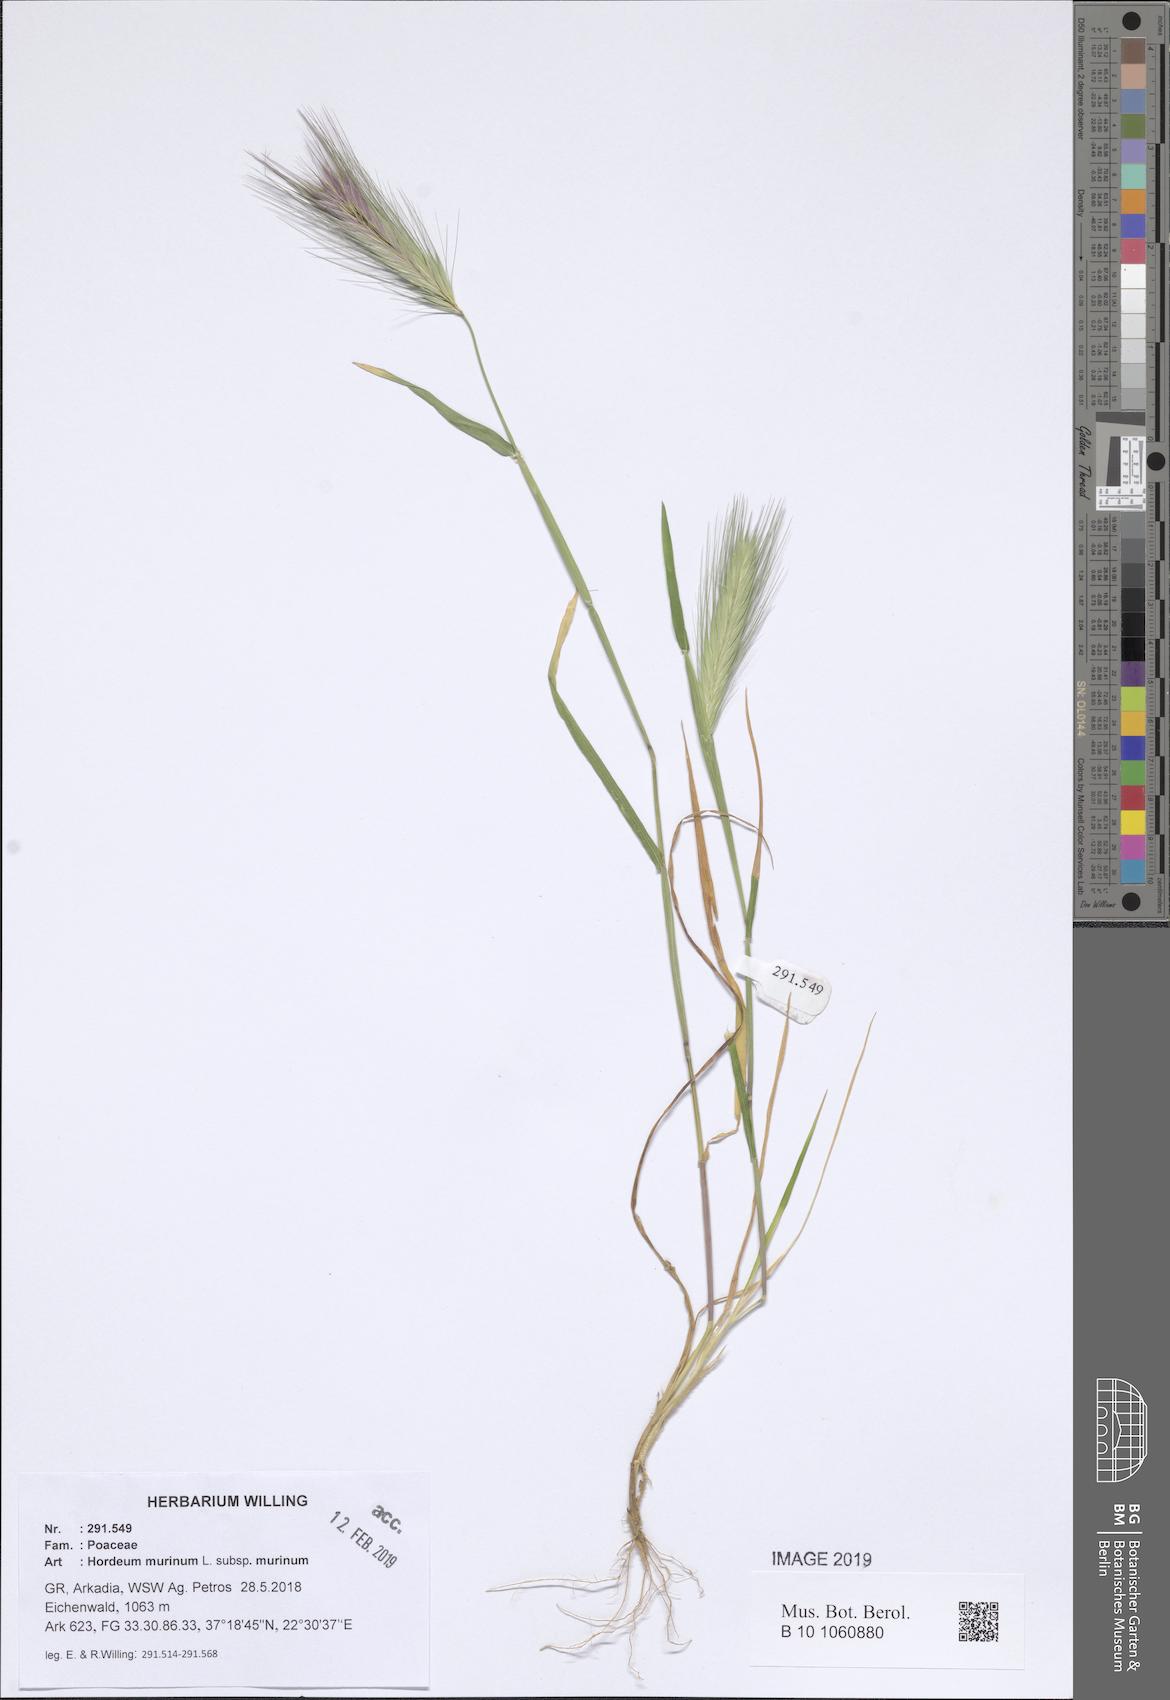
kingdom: Plantae
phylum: Tracheophyta
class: Liliopsida
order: Poales
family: Poaceae
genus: Hordeum
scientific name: Hordeum murinum
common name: Wall barley
